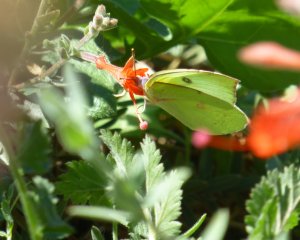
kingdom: Animalia
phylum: Arthropoda
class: Insecta
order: Lepidoptera
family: Pieridae
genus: Zerene
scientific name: Zerene eurydice
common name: California Dogface
